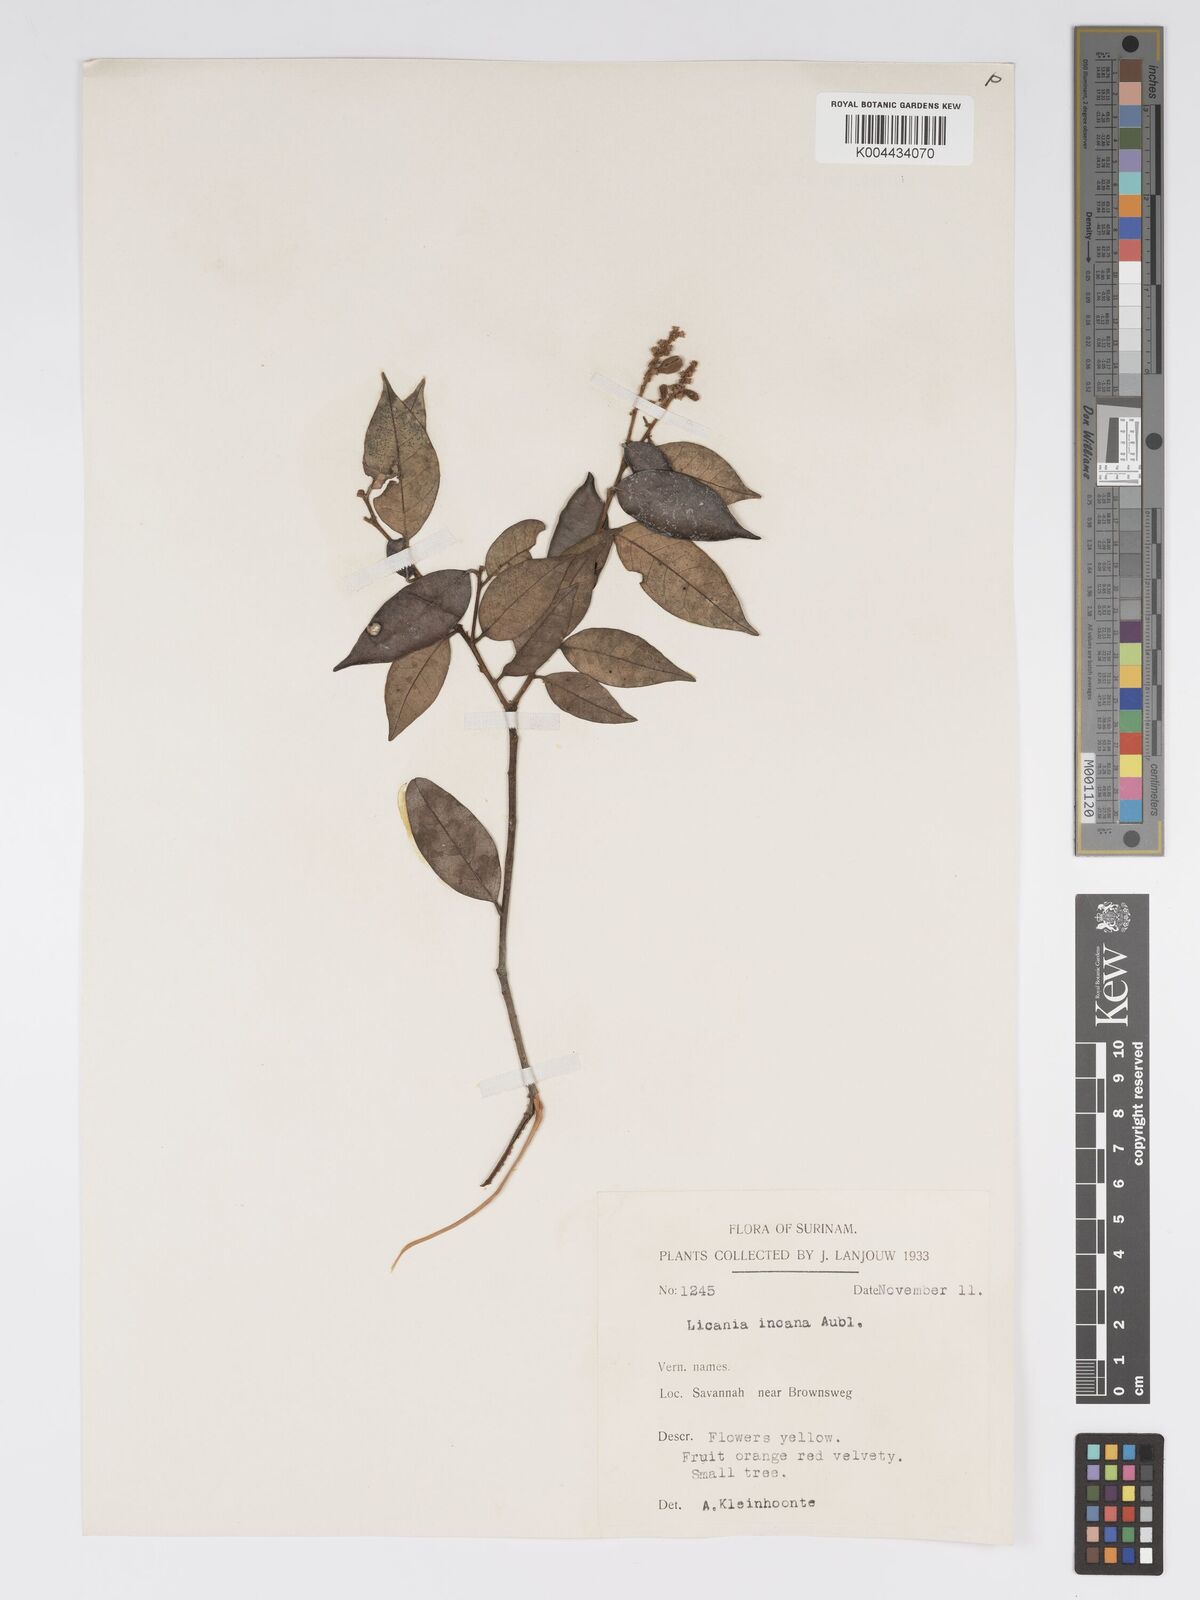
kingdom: Plantae
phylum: Tracheophyta
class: Magnoliopsida
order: Malpighiales
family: Chrysobalanaceae
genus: Licania
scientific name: Licania incana
